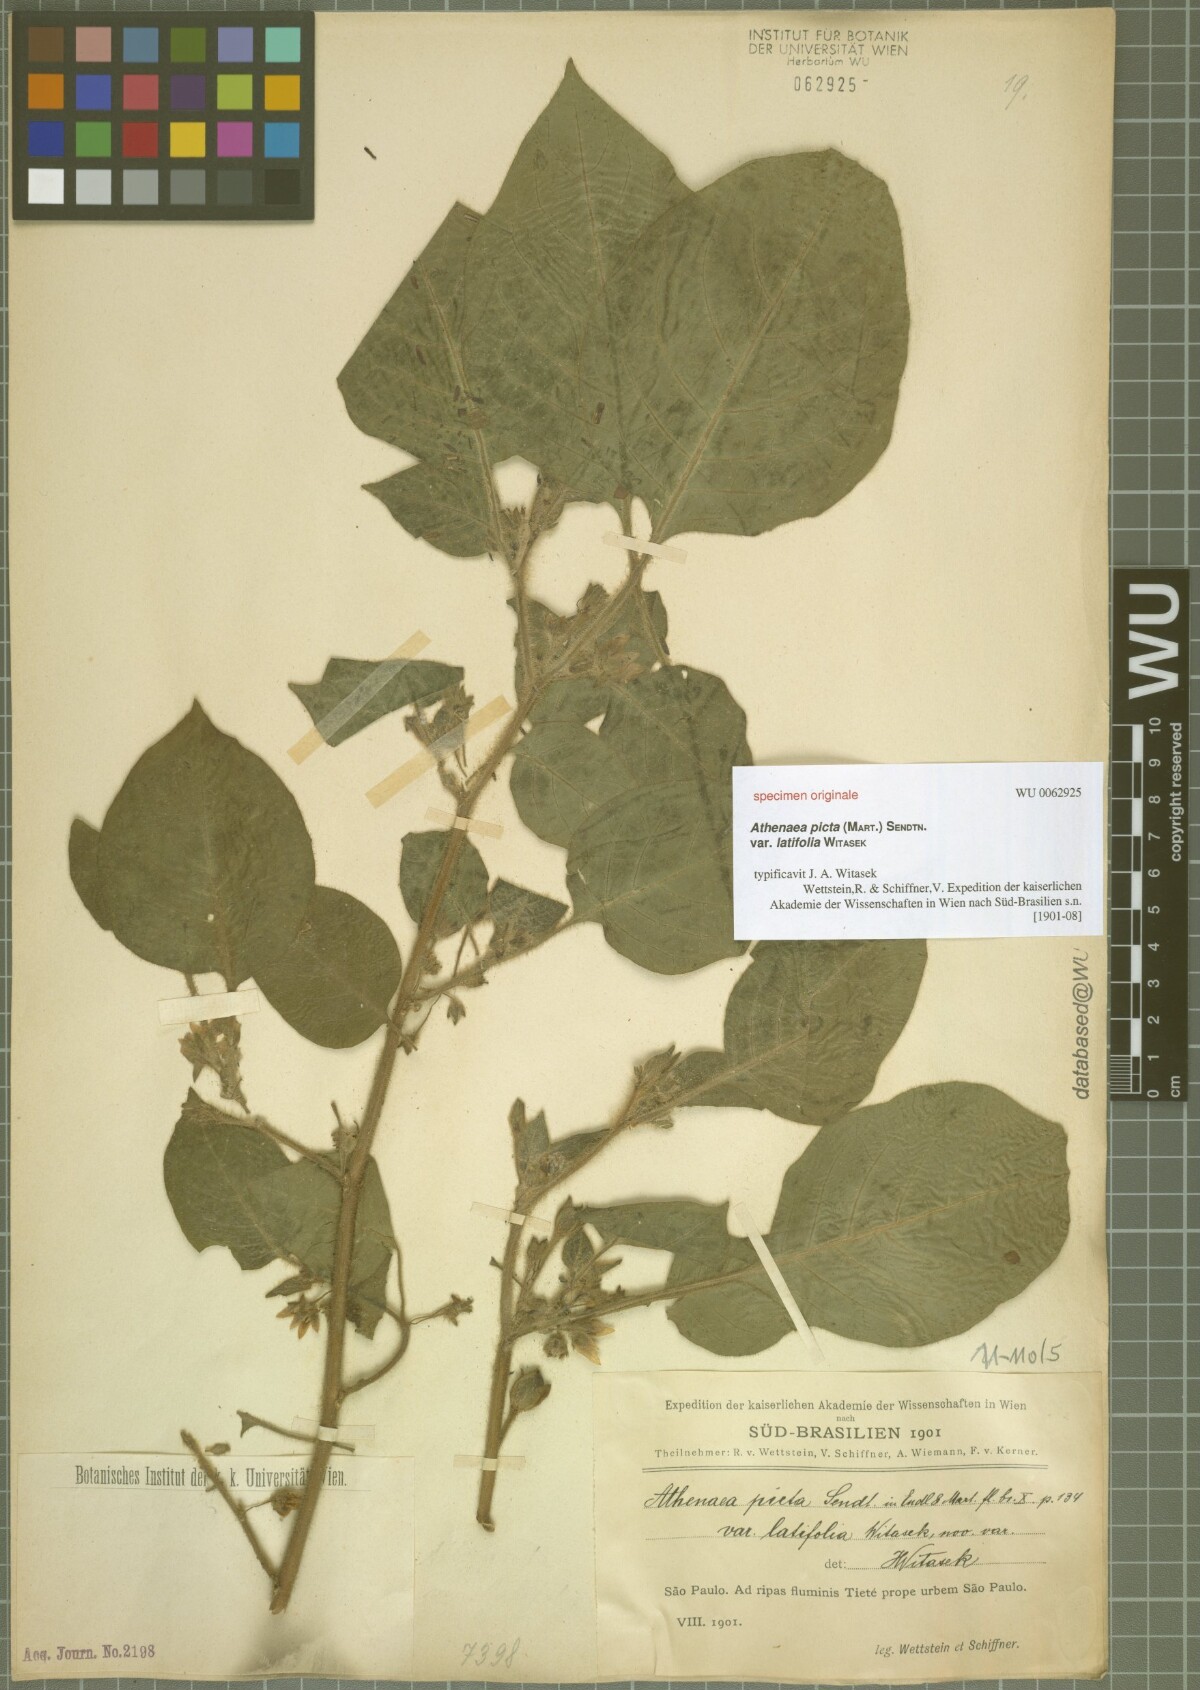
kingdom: Plantae
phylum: Tracheophyta
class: Magnoliopsida
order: Solanales
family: Solanaceae
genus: Athenaea
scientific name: Athenaea picta
